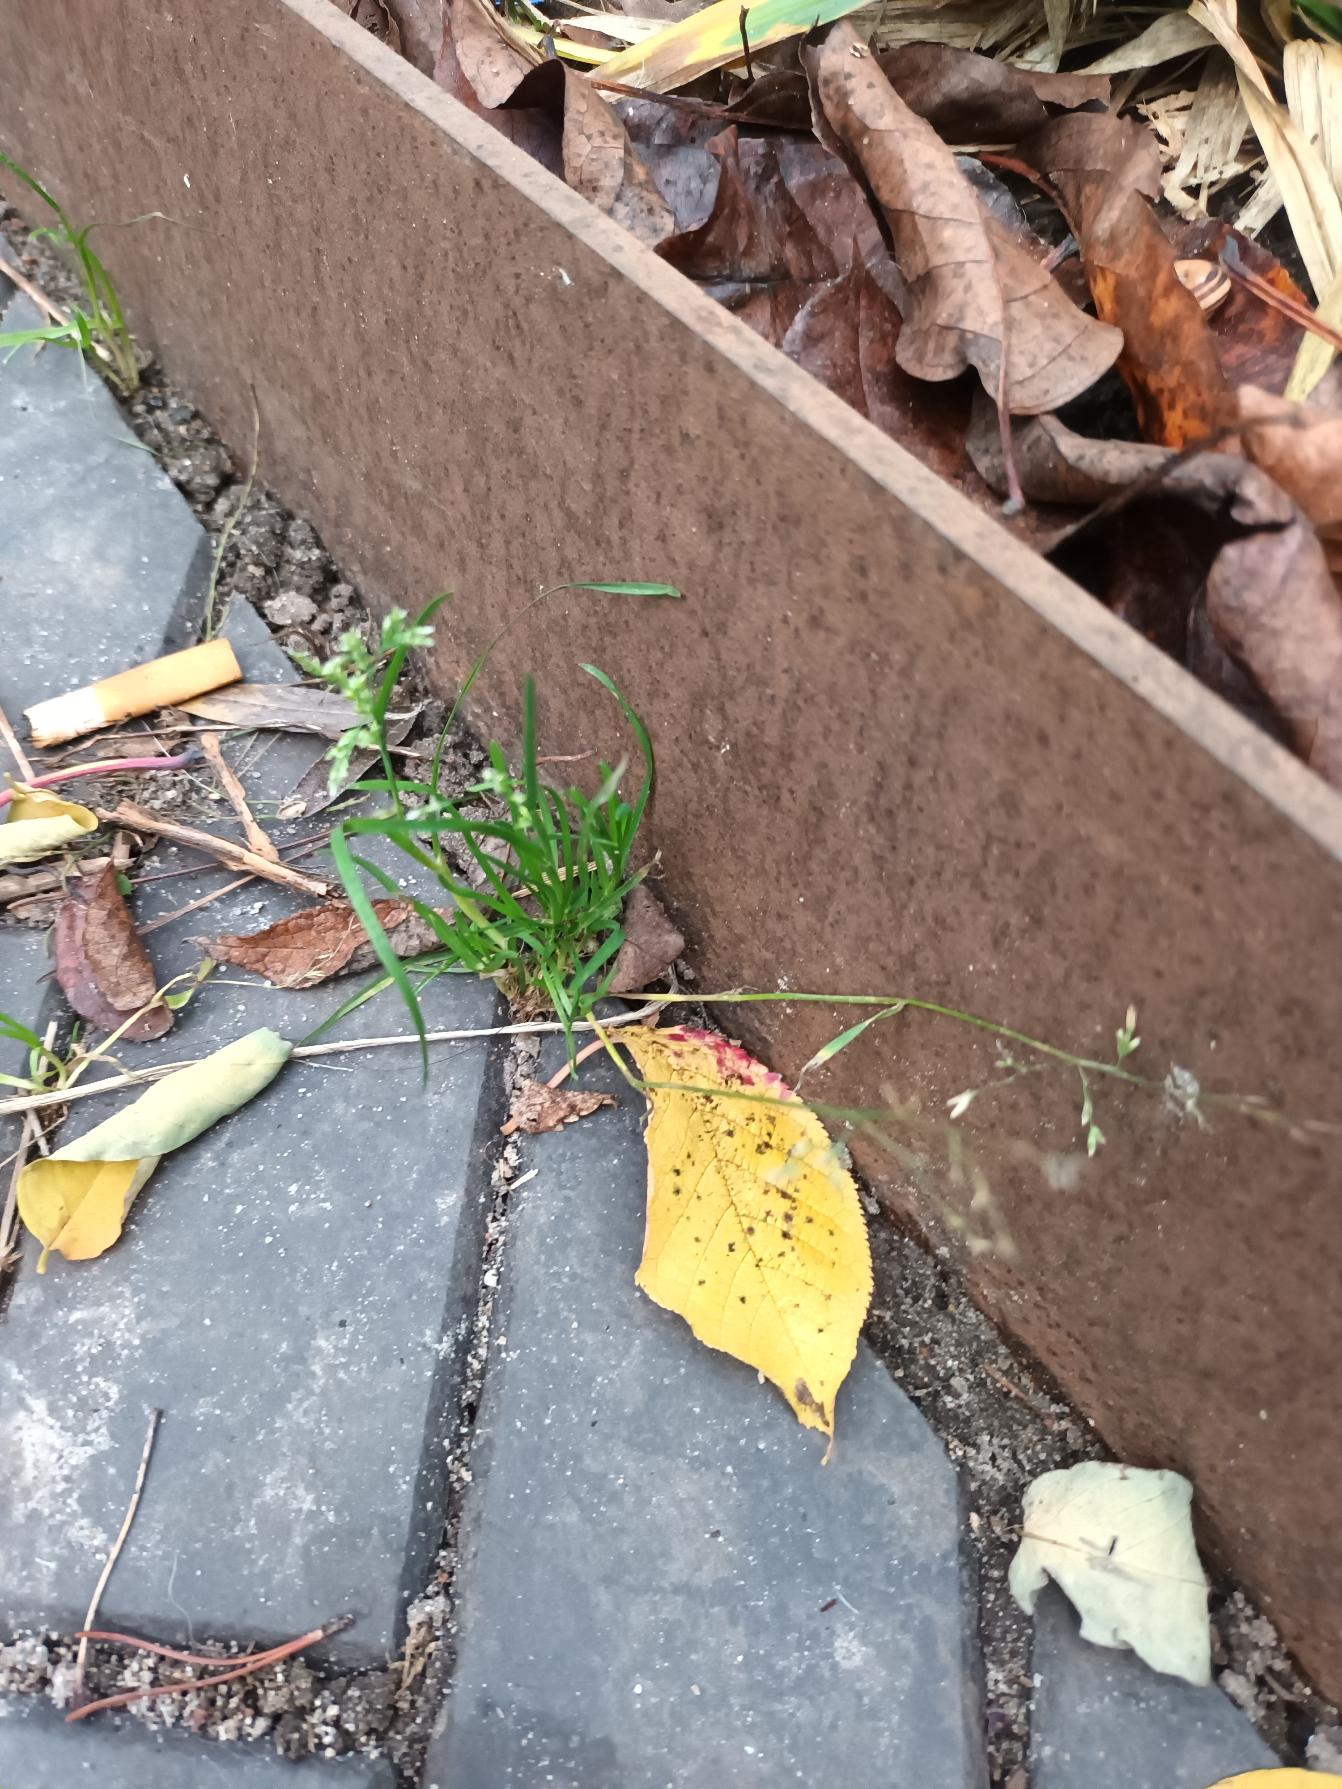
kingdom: Plantae
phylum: Tracheophyta
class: Liliopsida
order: Poales
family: Poaceae
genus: Poa
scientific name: Poa annua
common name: Enårig rapgræs
